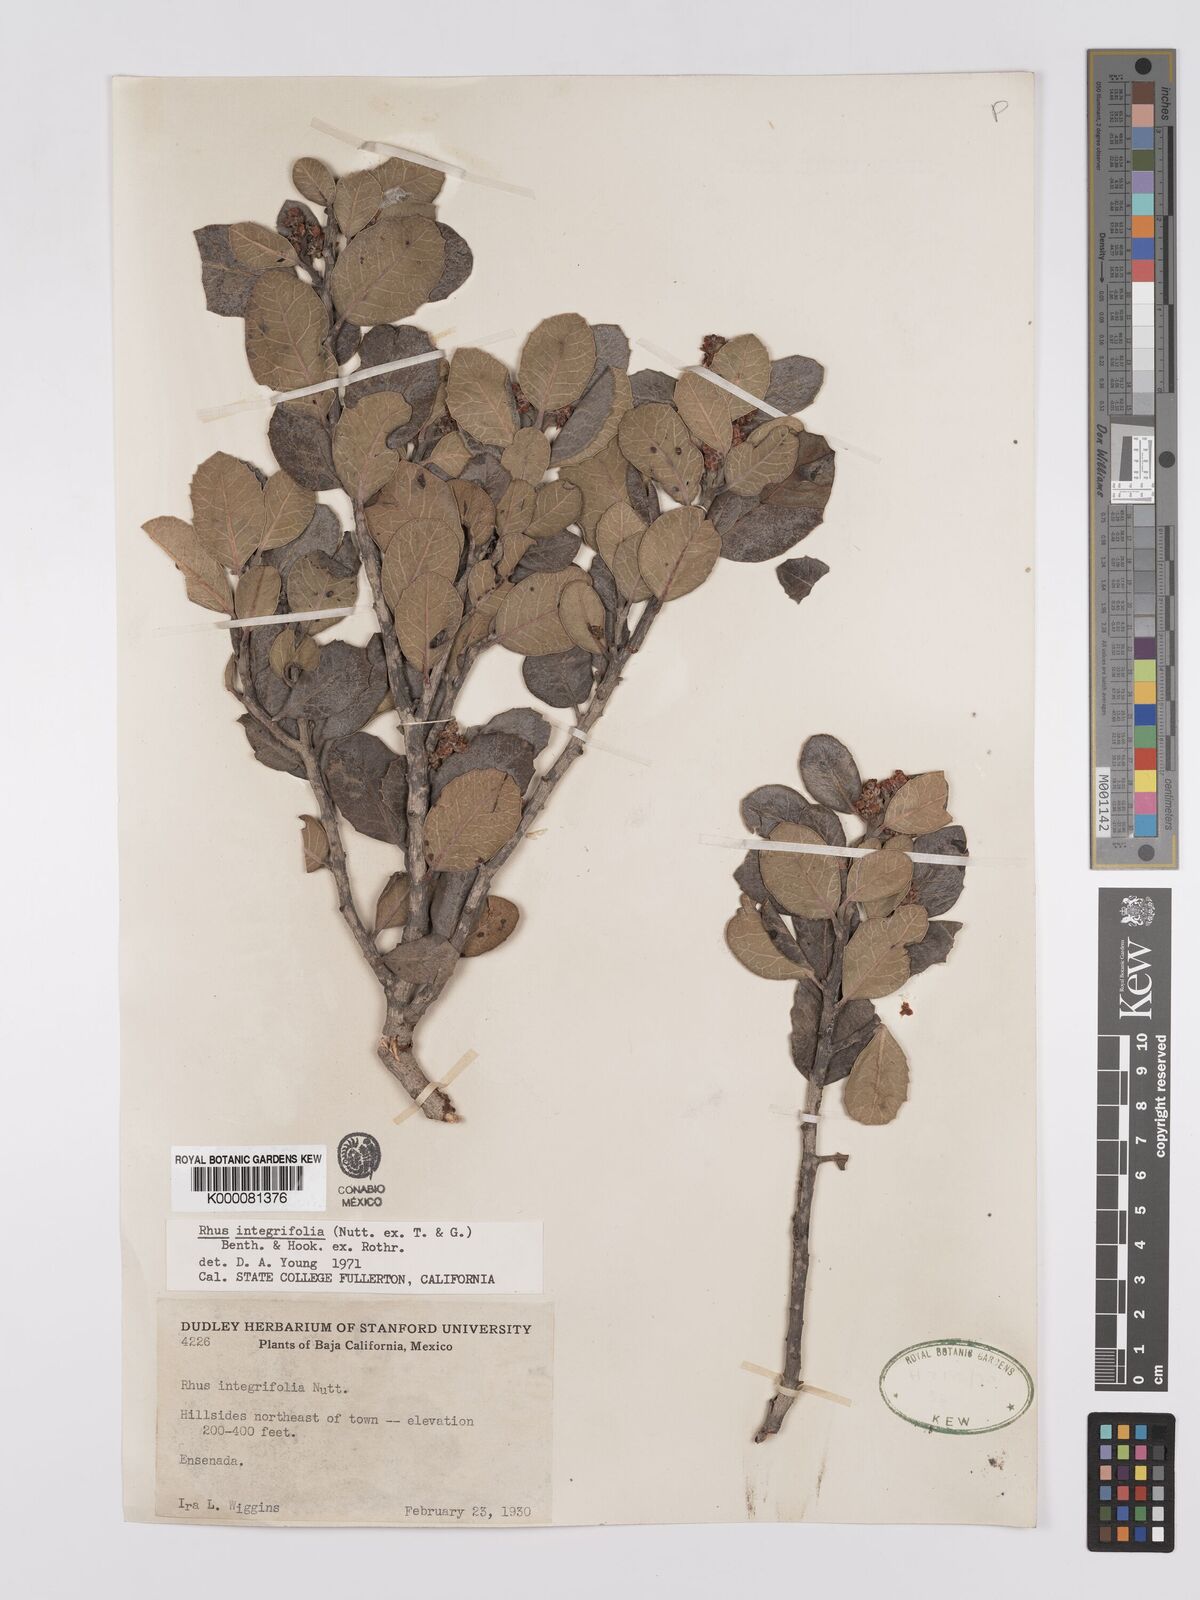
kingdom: Plantae
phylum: Tracheophyta
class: Magnoliopsida
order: Sapindales
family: Anacardiaceae
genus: Rhus
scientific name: Rhus integrifolia
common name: Lemonade sumac
